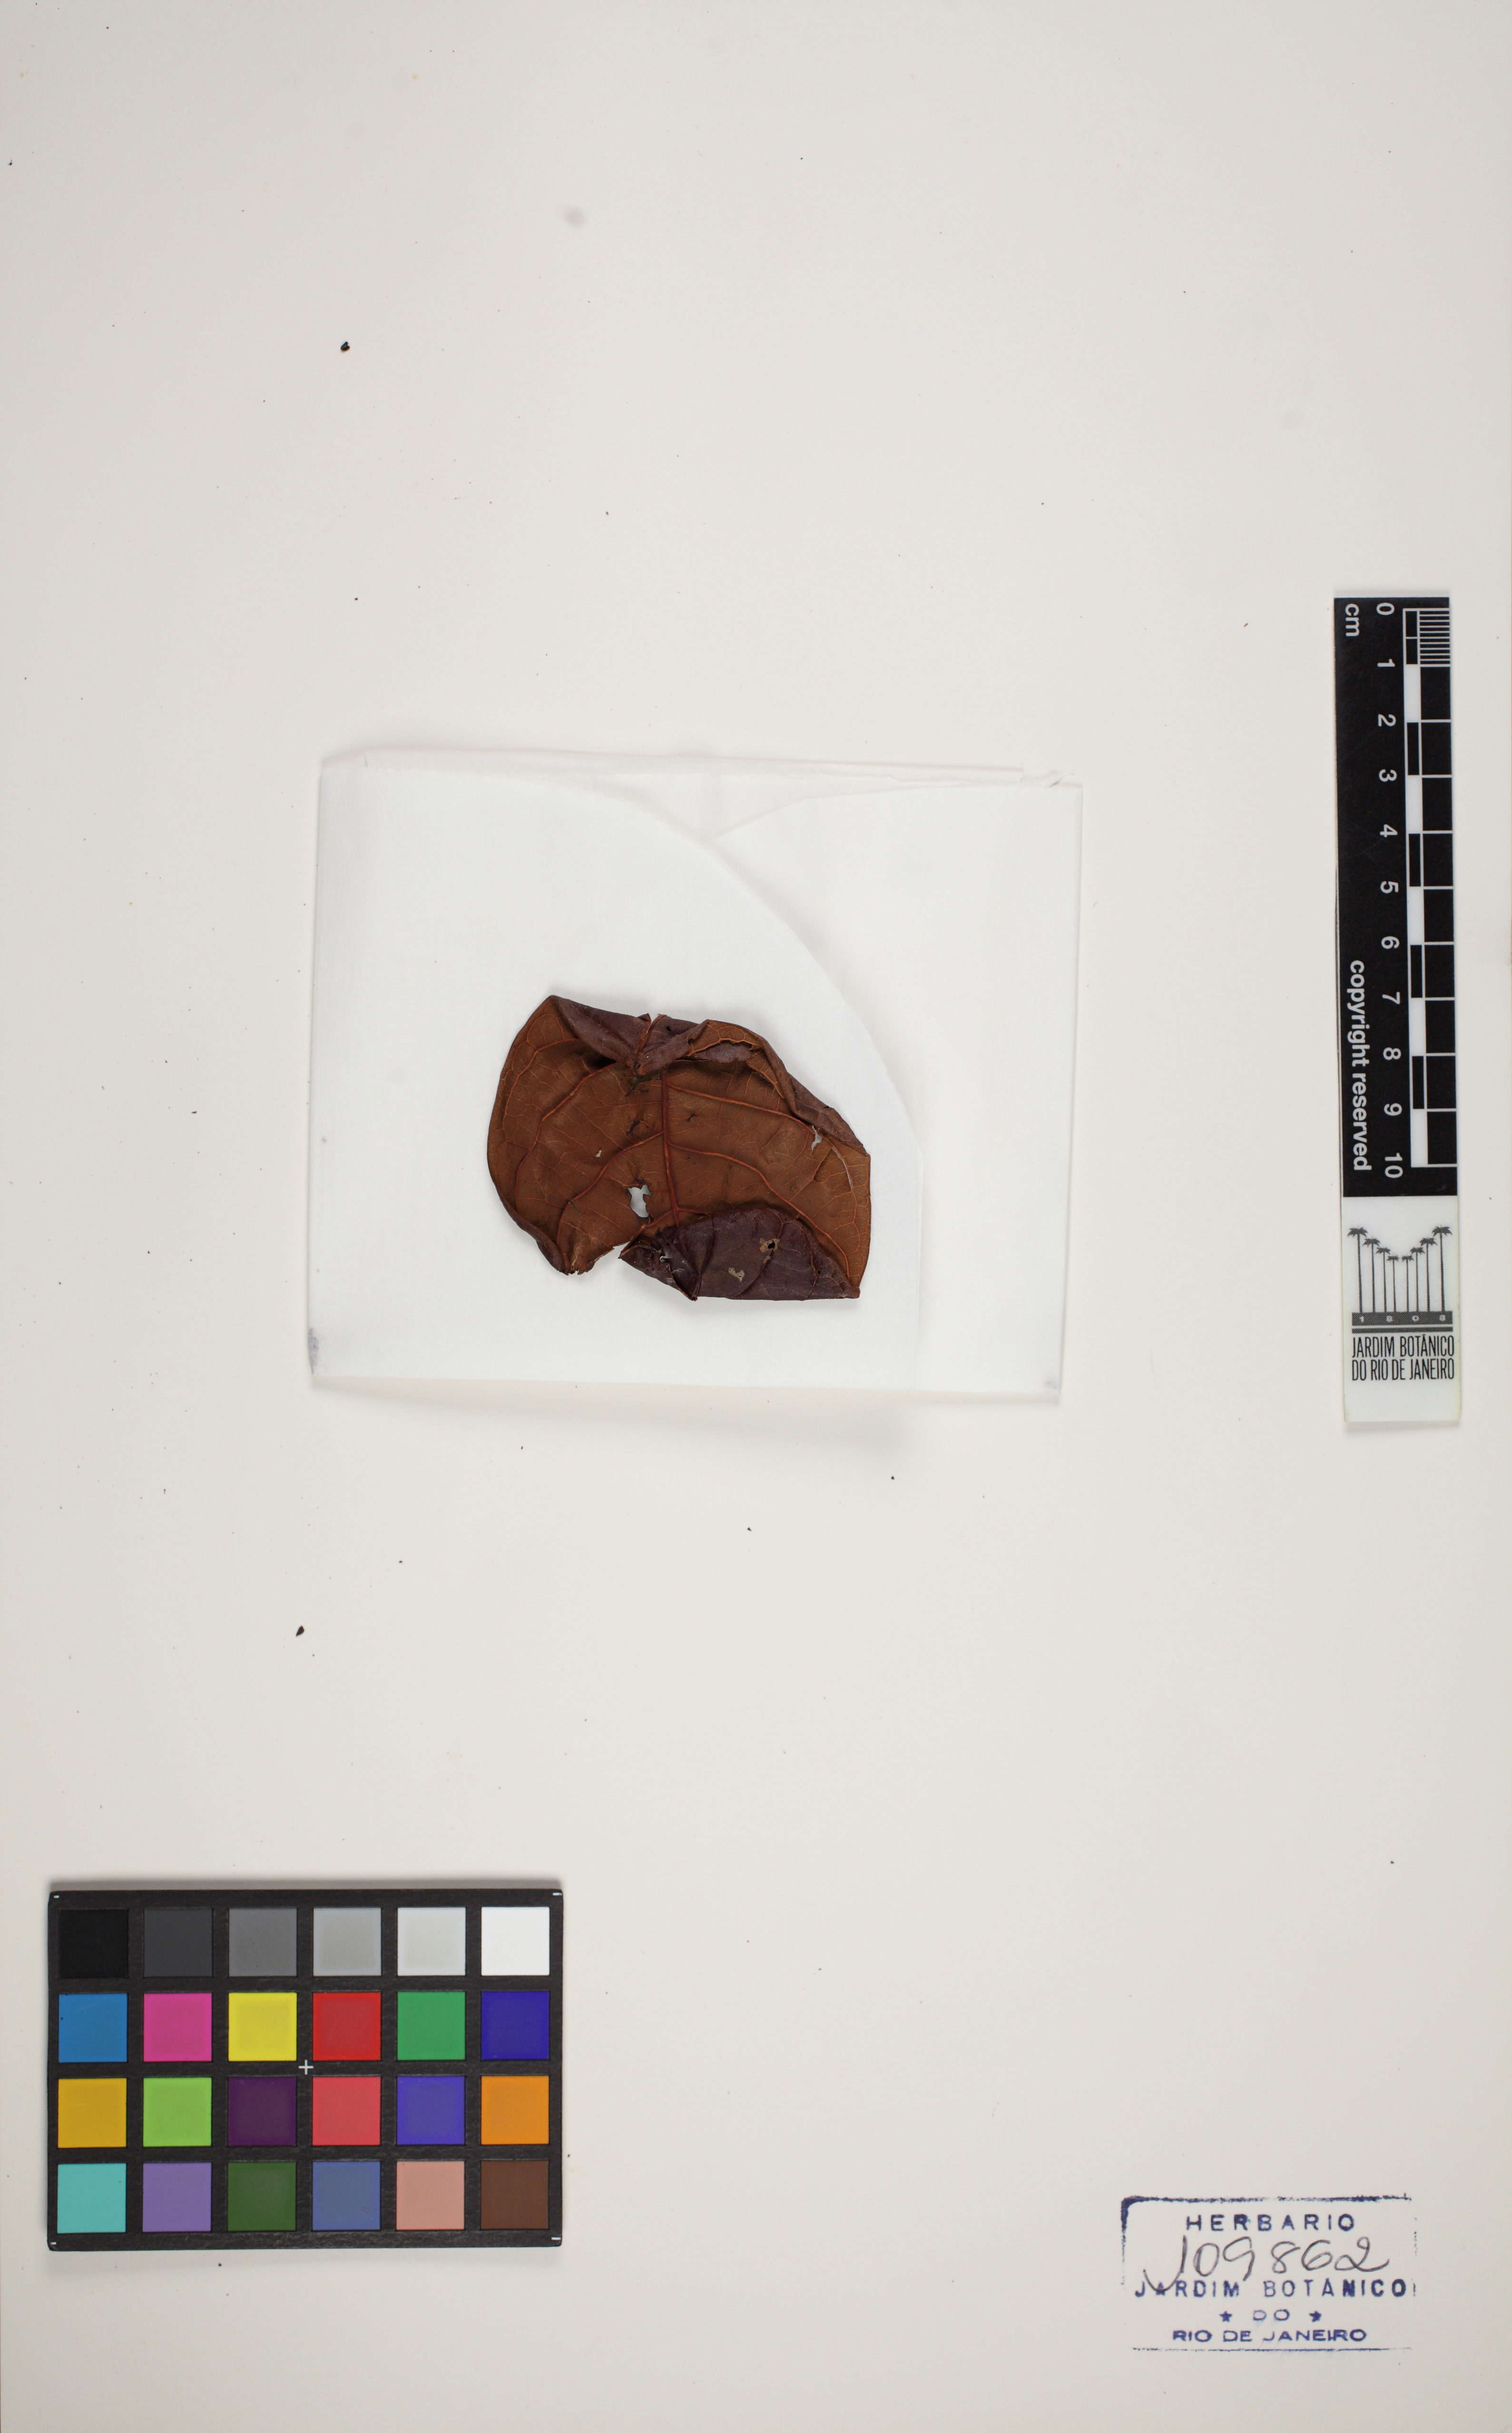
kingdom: Plantae
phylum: Tracheophyta
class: Magnoliopsida
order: Caryophyllales
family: Polygonaceae
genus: Coccoloba
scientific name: Coccoloba arborescens
